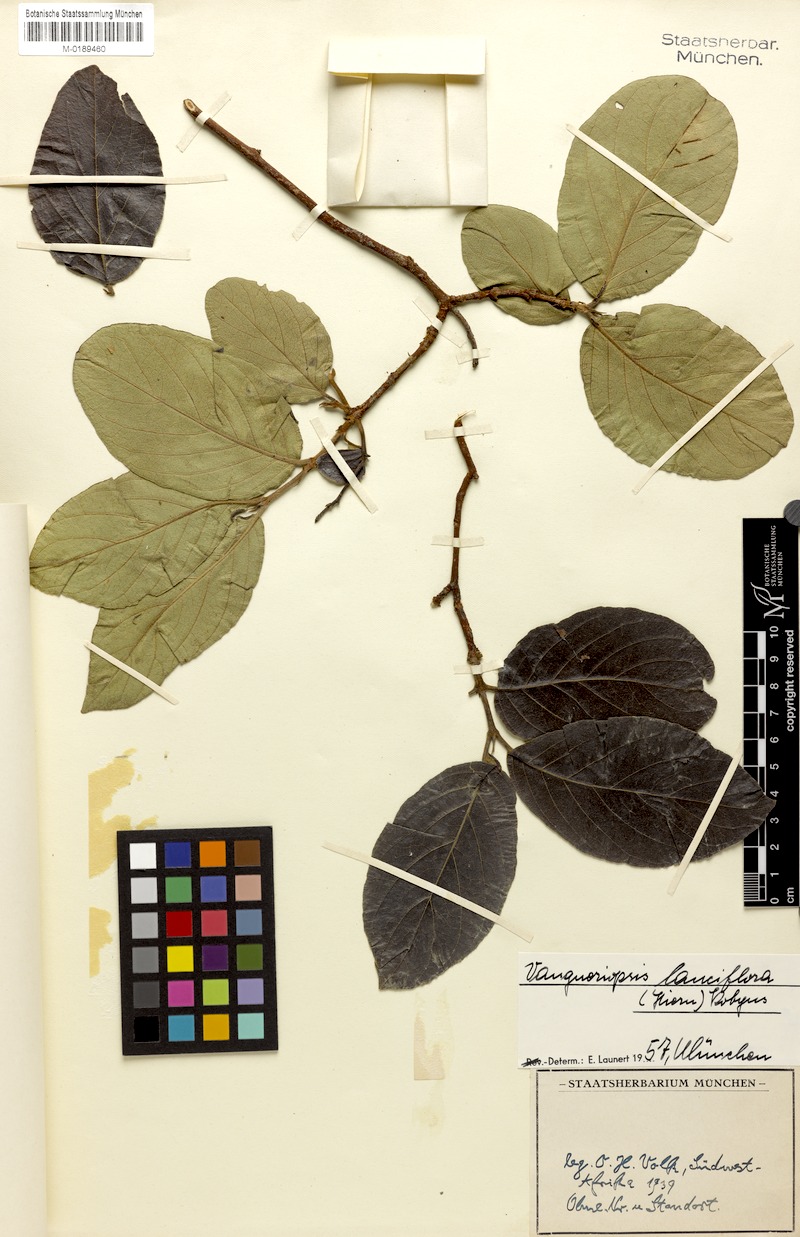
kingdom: Plantae
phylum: Tracheophyta
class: Magnoliopsida
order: Gentianales
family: Rubiaceae
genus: Vangueriopsis
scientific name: Vangueriopsis lanciflora
